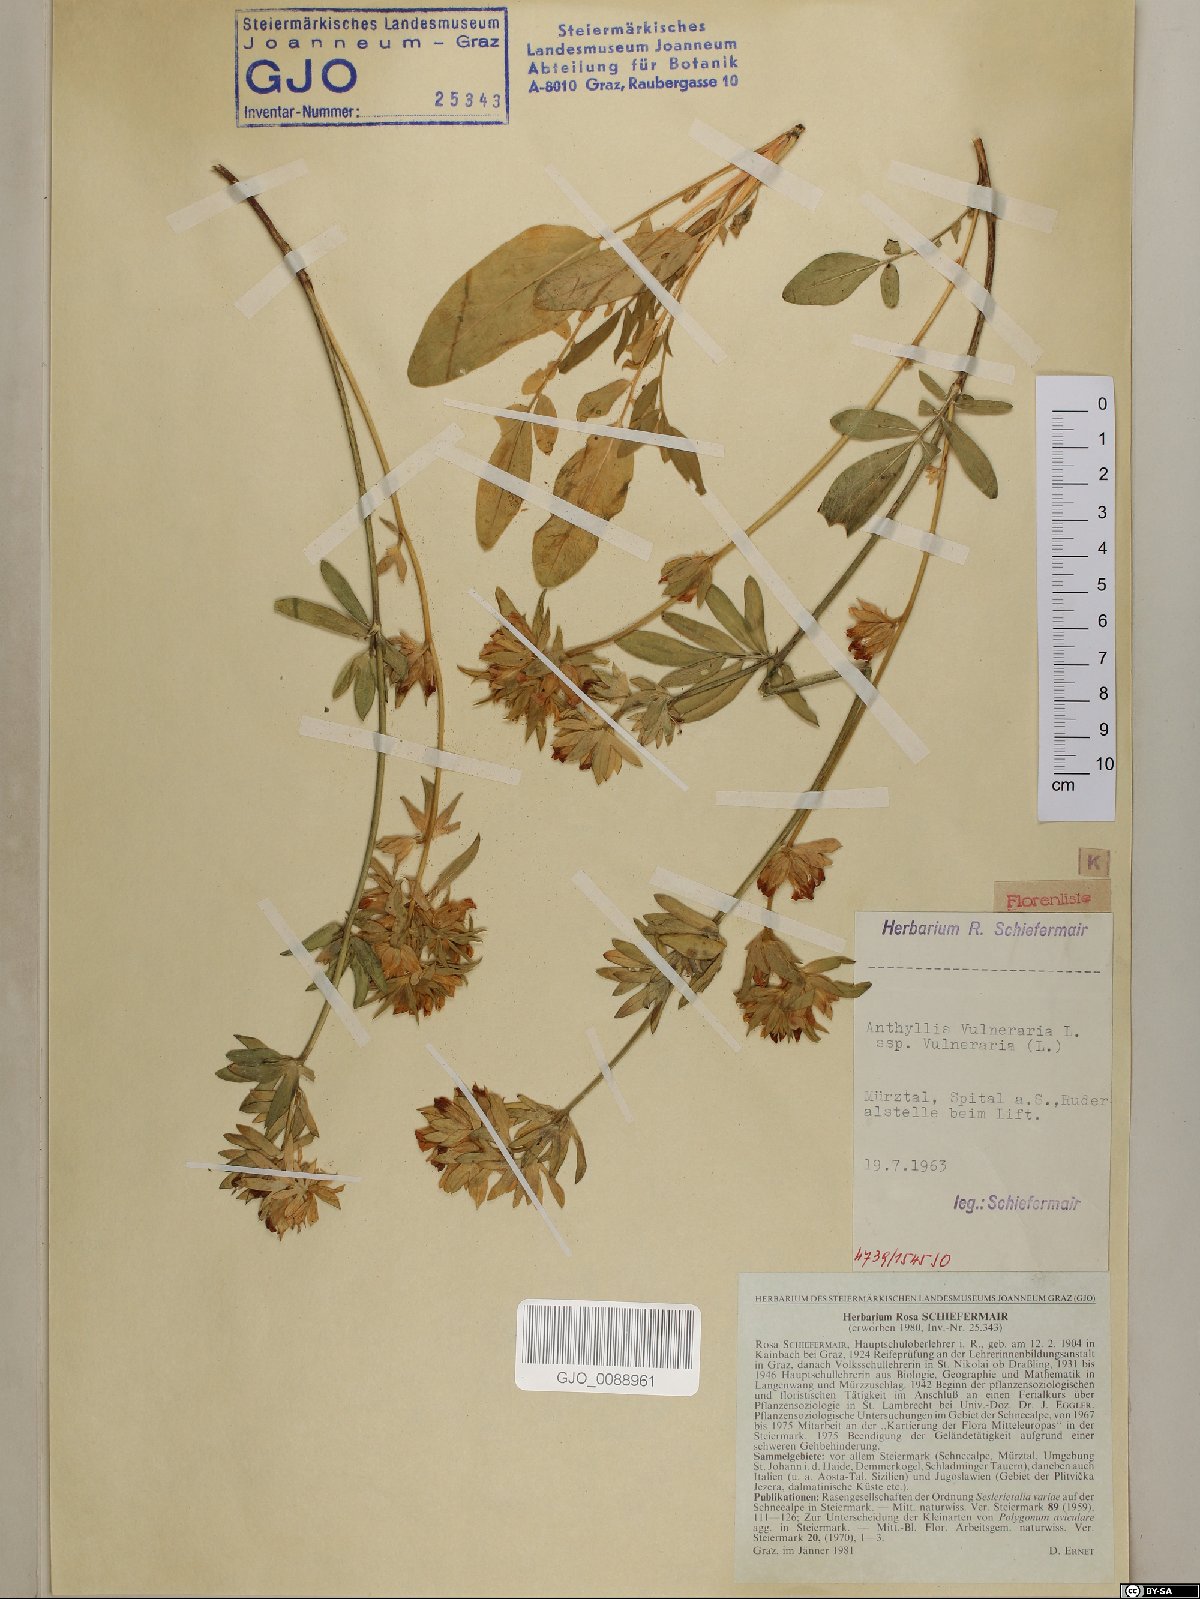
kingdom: Plantae
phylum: Tracheophyta
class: Magnoliopsida
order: Fabales
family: Fabaceae
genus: Anthyllis
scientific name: Anthyllis vulneraria
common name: Kidney vetch
